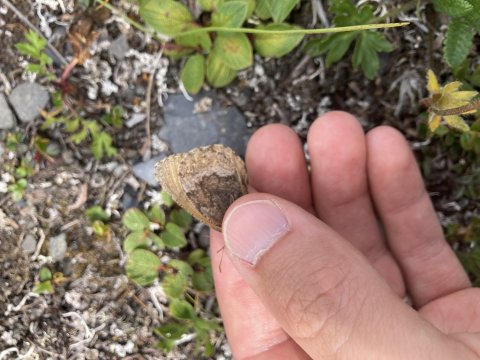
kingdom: Animalia
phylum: Arthropoda
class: Insecta
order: Lepidoptera
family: Nymphalidae
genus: Oeneis
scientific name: Oeneis bore
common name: Polixenes Arctic
